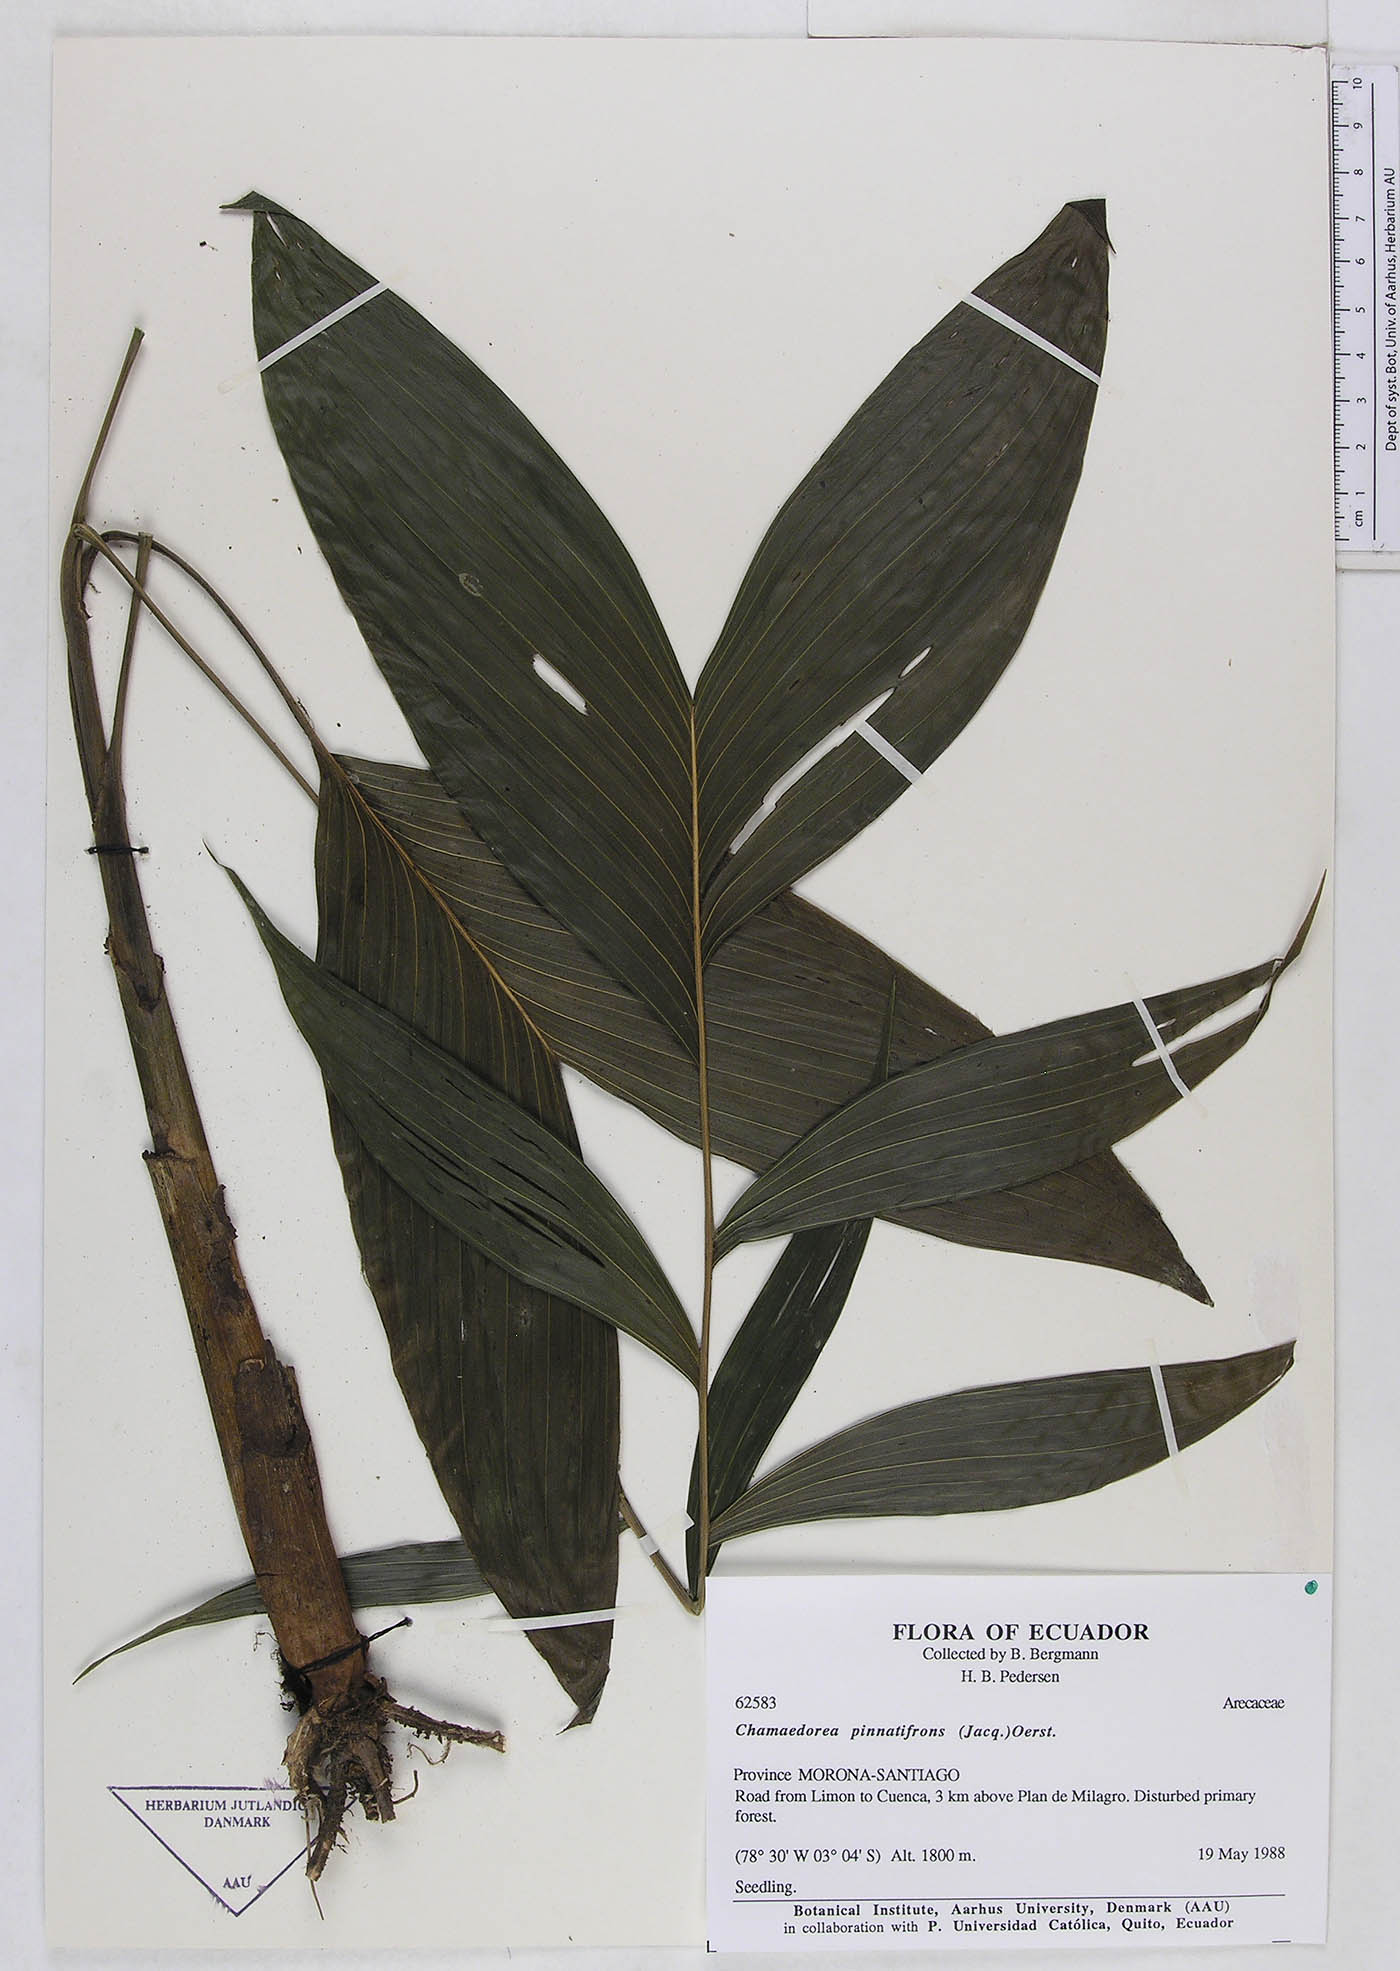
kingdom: Plantae
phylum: Tracheophyta
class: Liliopsida
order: Arecales
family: Arecaceae
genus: Chamaedorea
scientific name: Chamaedorea pinnatifrons
